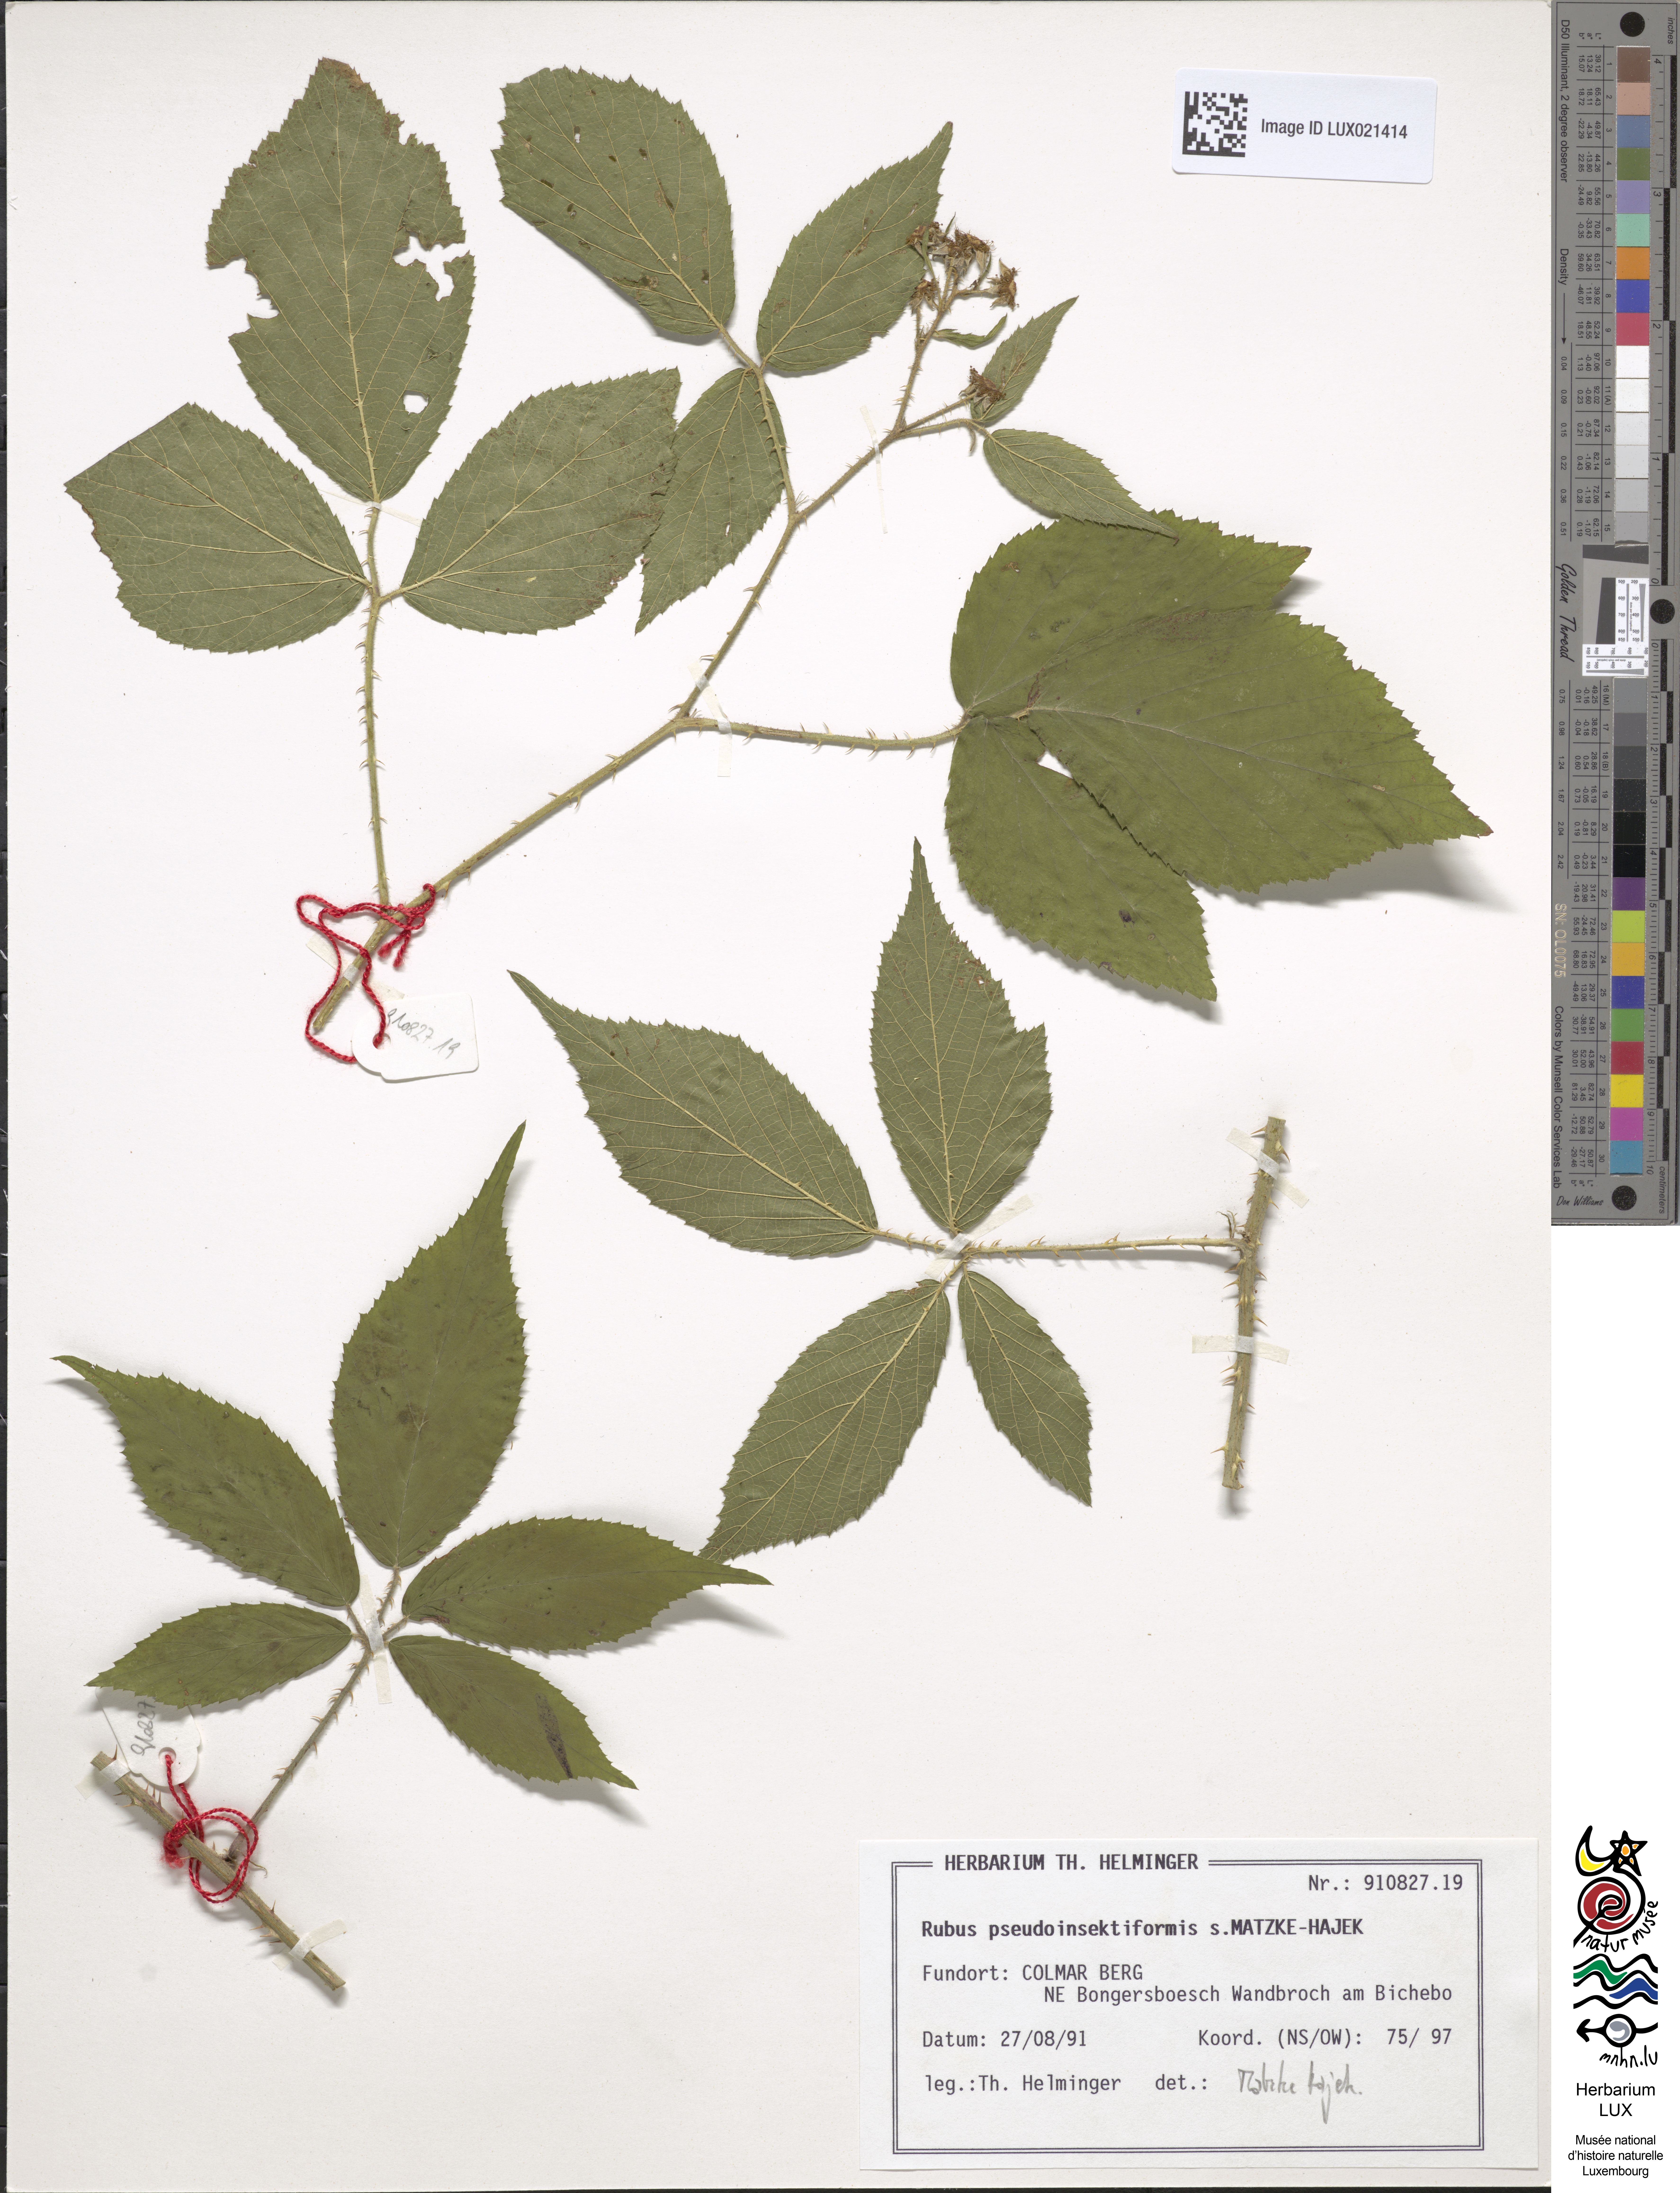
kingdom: Plantae
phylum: Tracheophyta
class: Magnoliopsida
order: Rosales
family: Rosaceae
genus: Rubus
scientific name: Rubus
